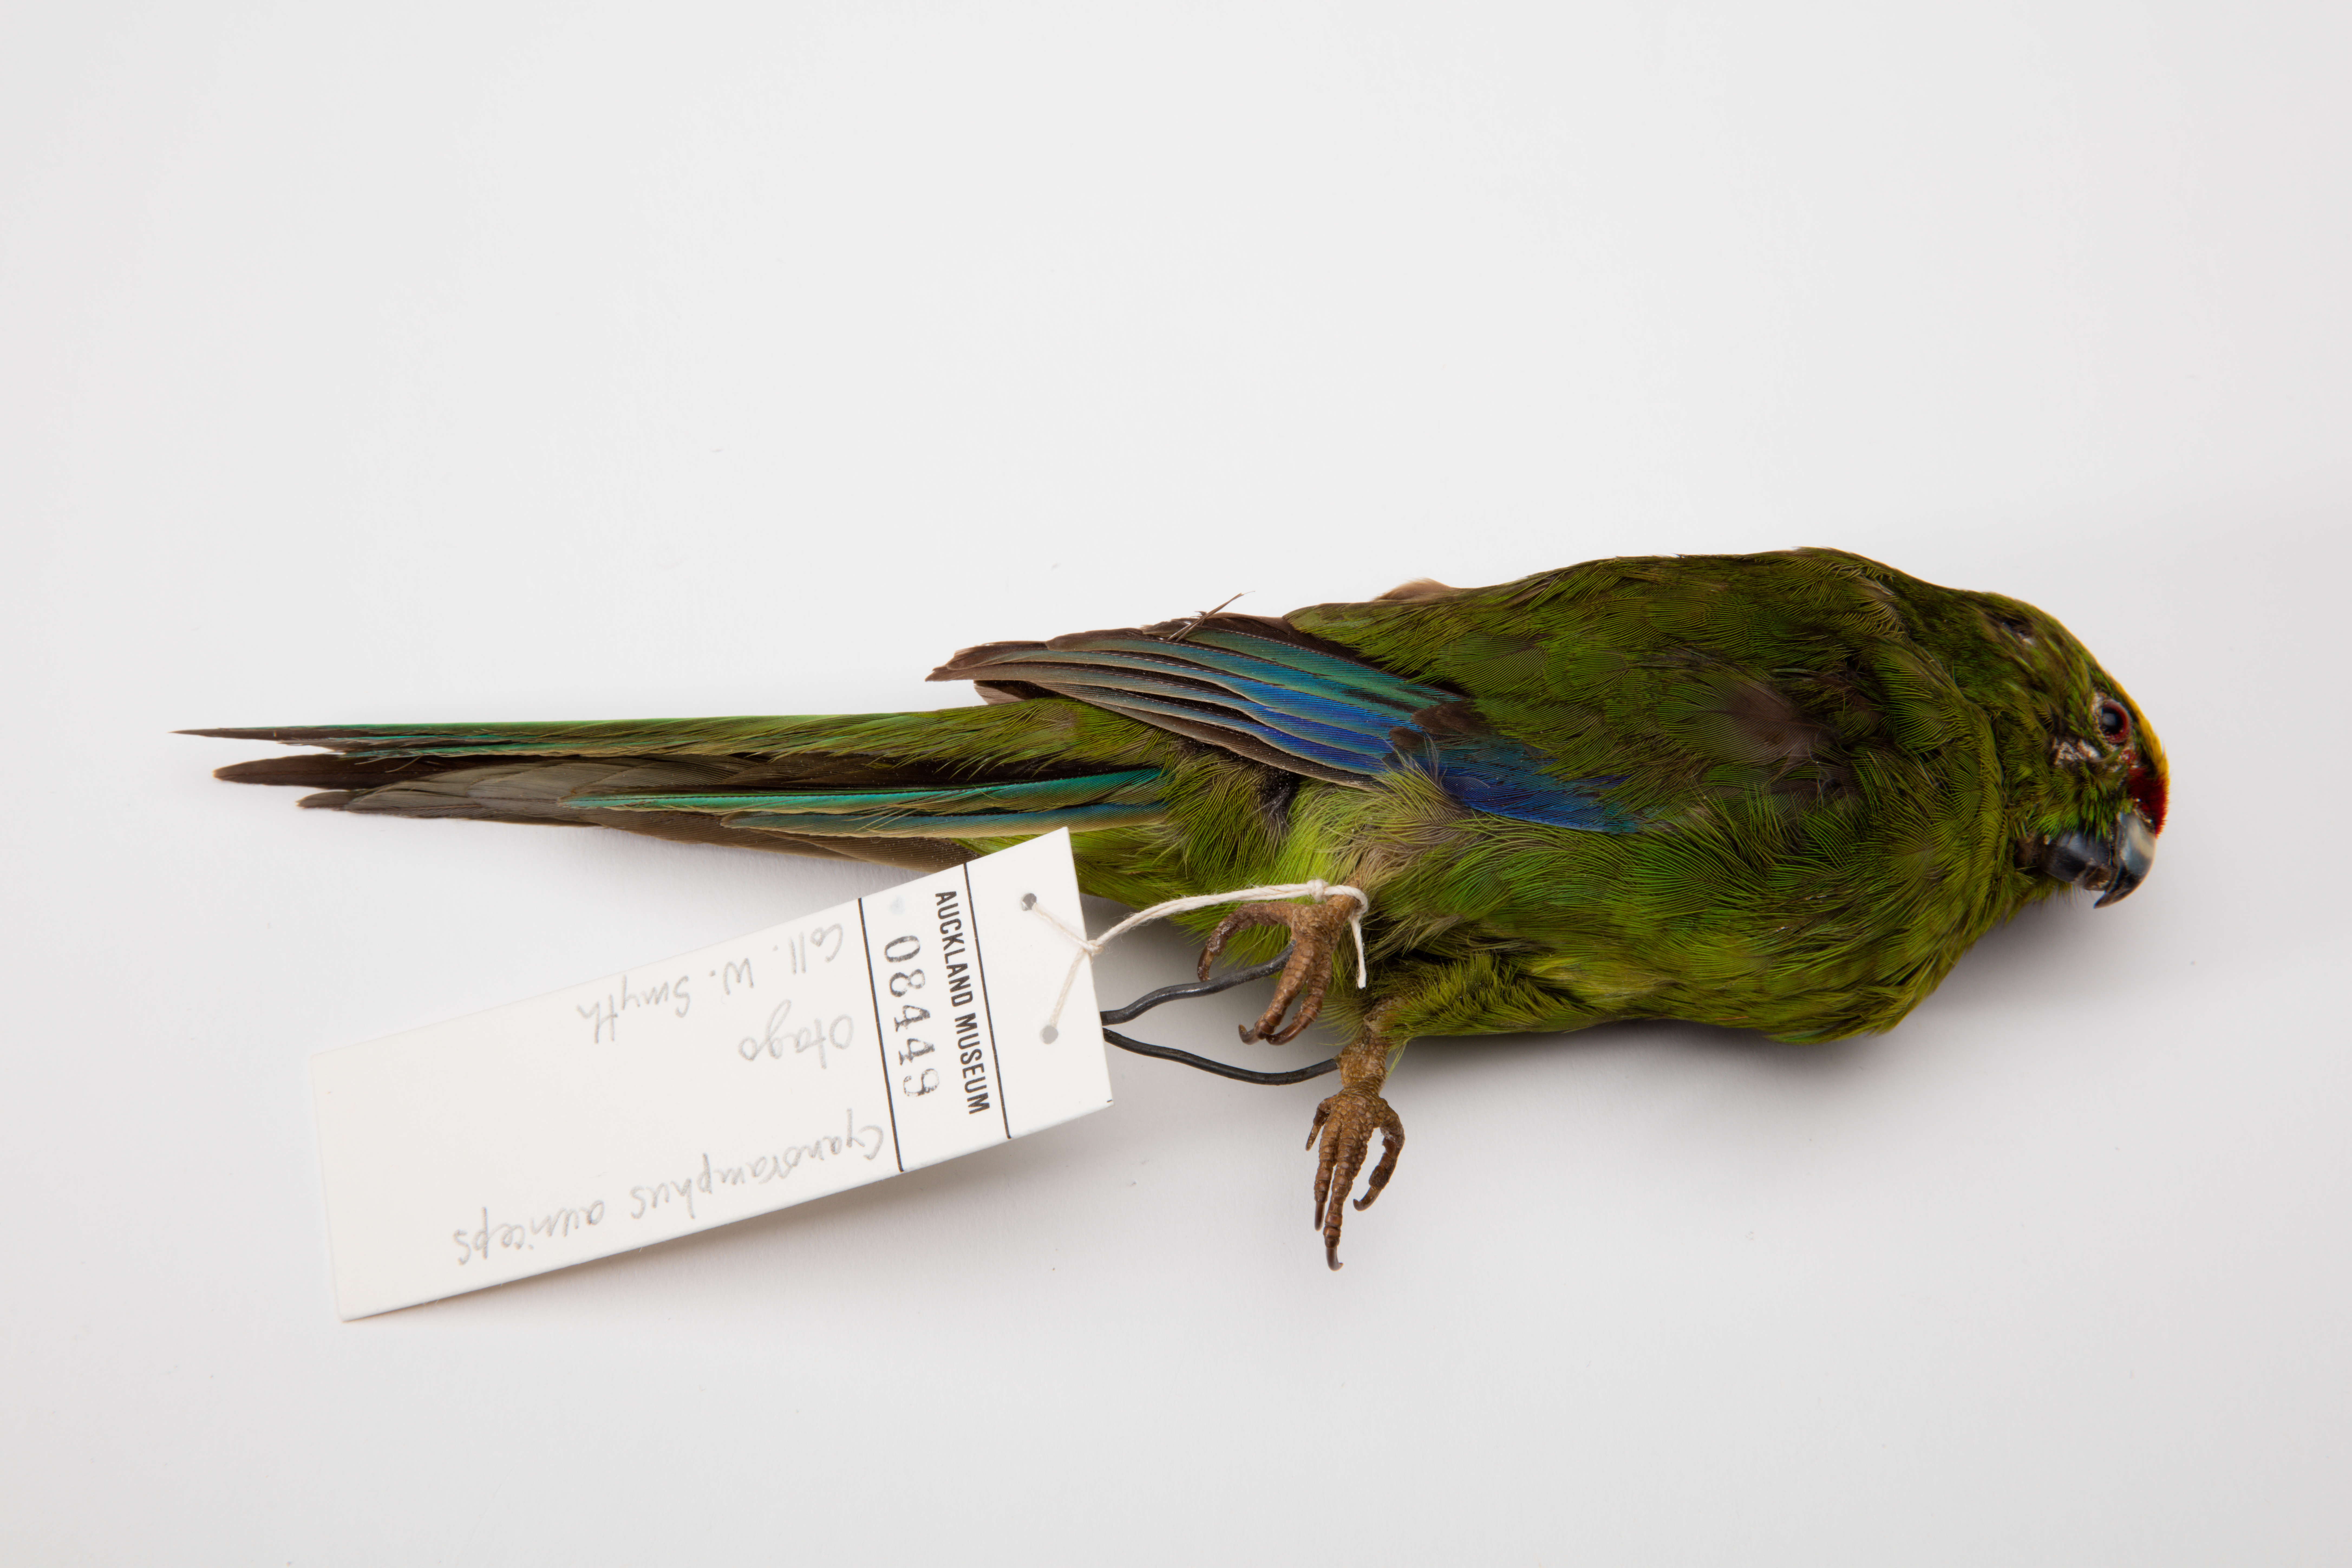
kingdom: Animalia
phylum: Chordata
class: Aves
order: Psittaciformes
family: Psittacidae
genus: Cyanoramphus
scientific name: Cyanoramphus auriceps
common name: Yellow-crowned parakeet
